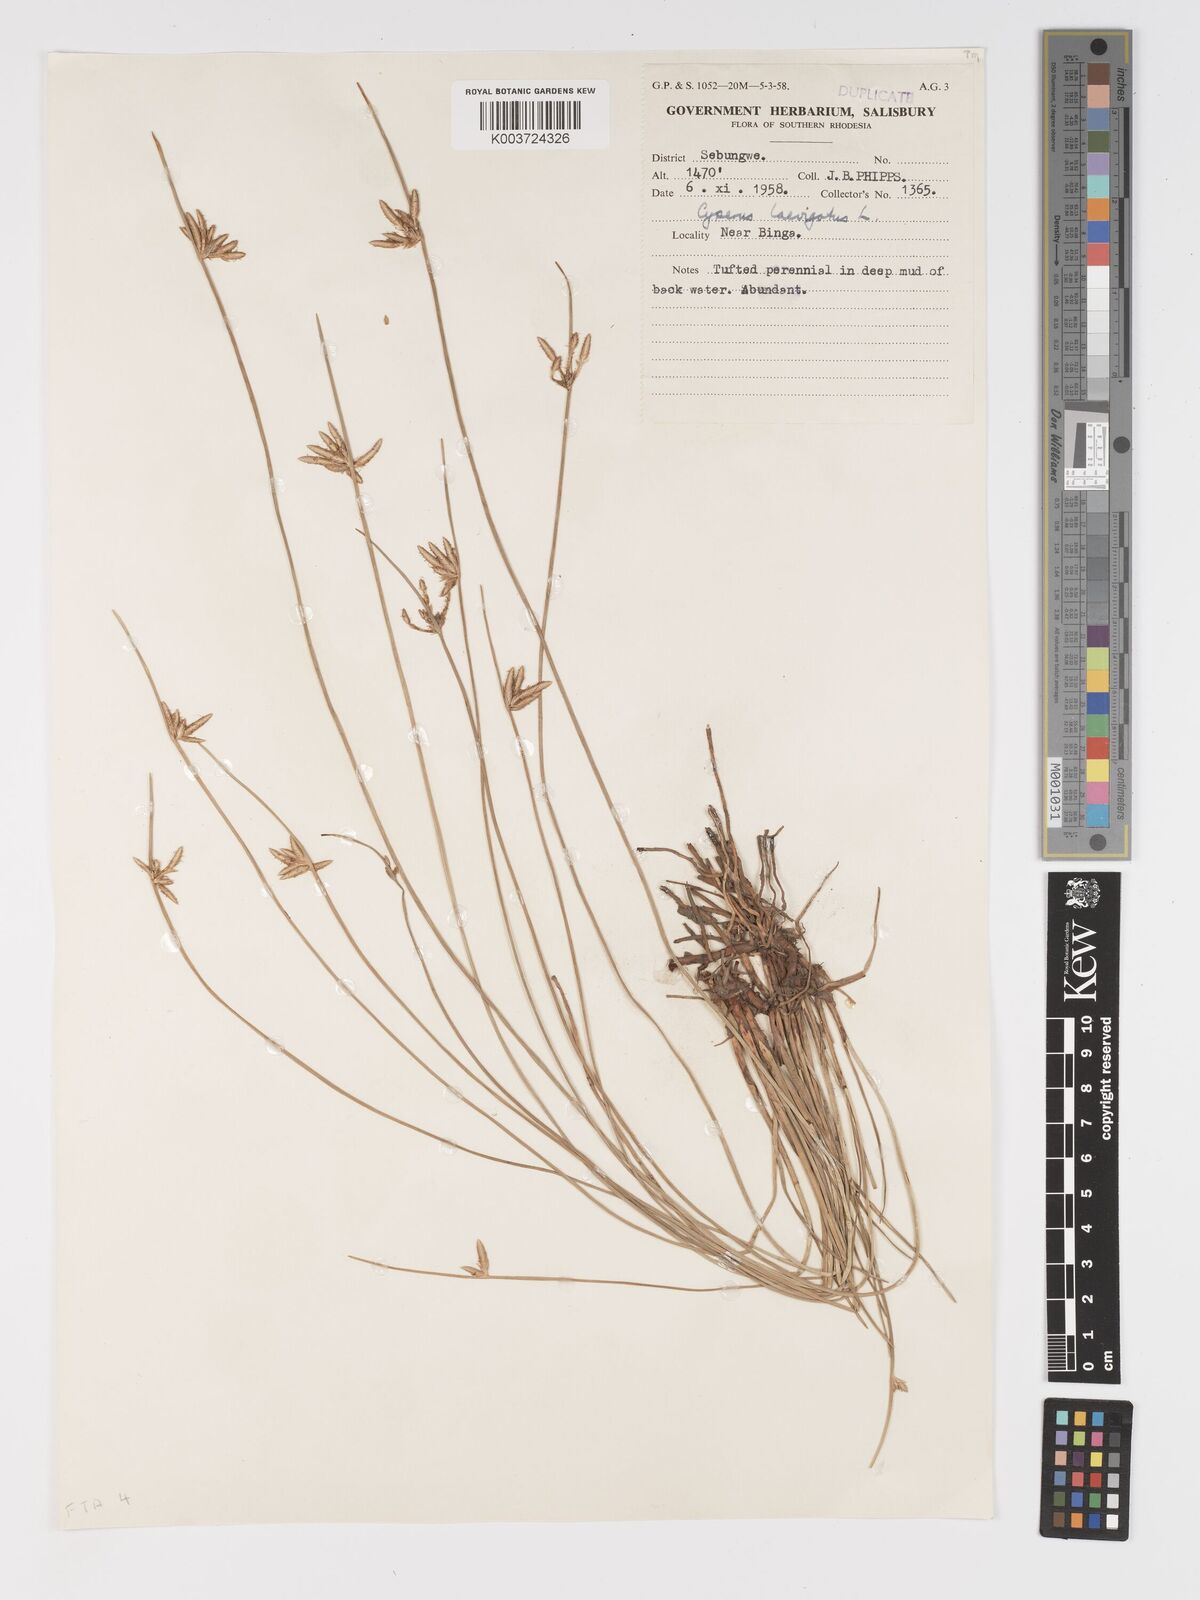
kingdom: Plantae
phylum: Tracheophyta
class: Liliopsida
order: Poales
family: Cyperaceae
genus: Cyperus
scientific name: Cyperus laevigatus
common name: Smooth flat sedge
